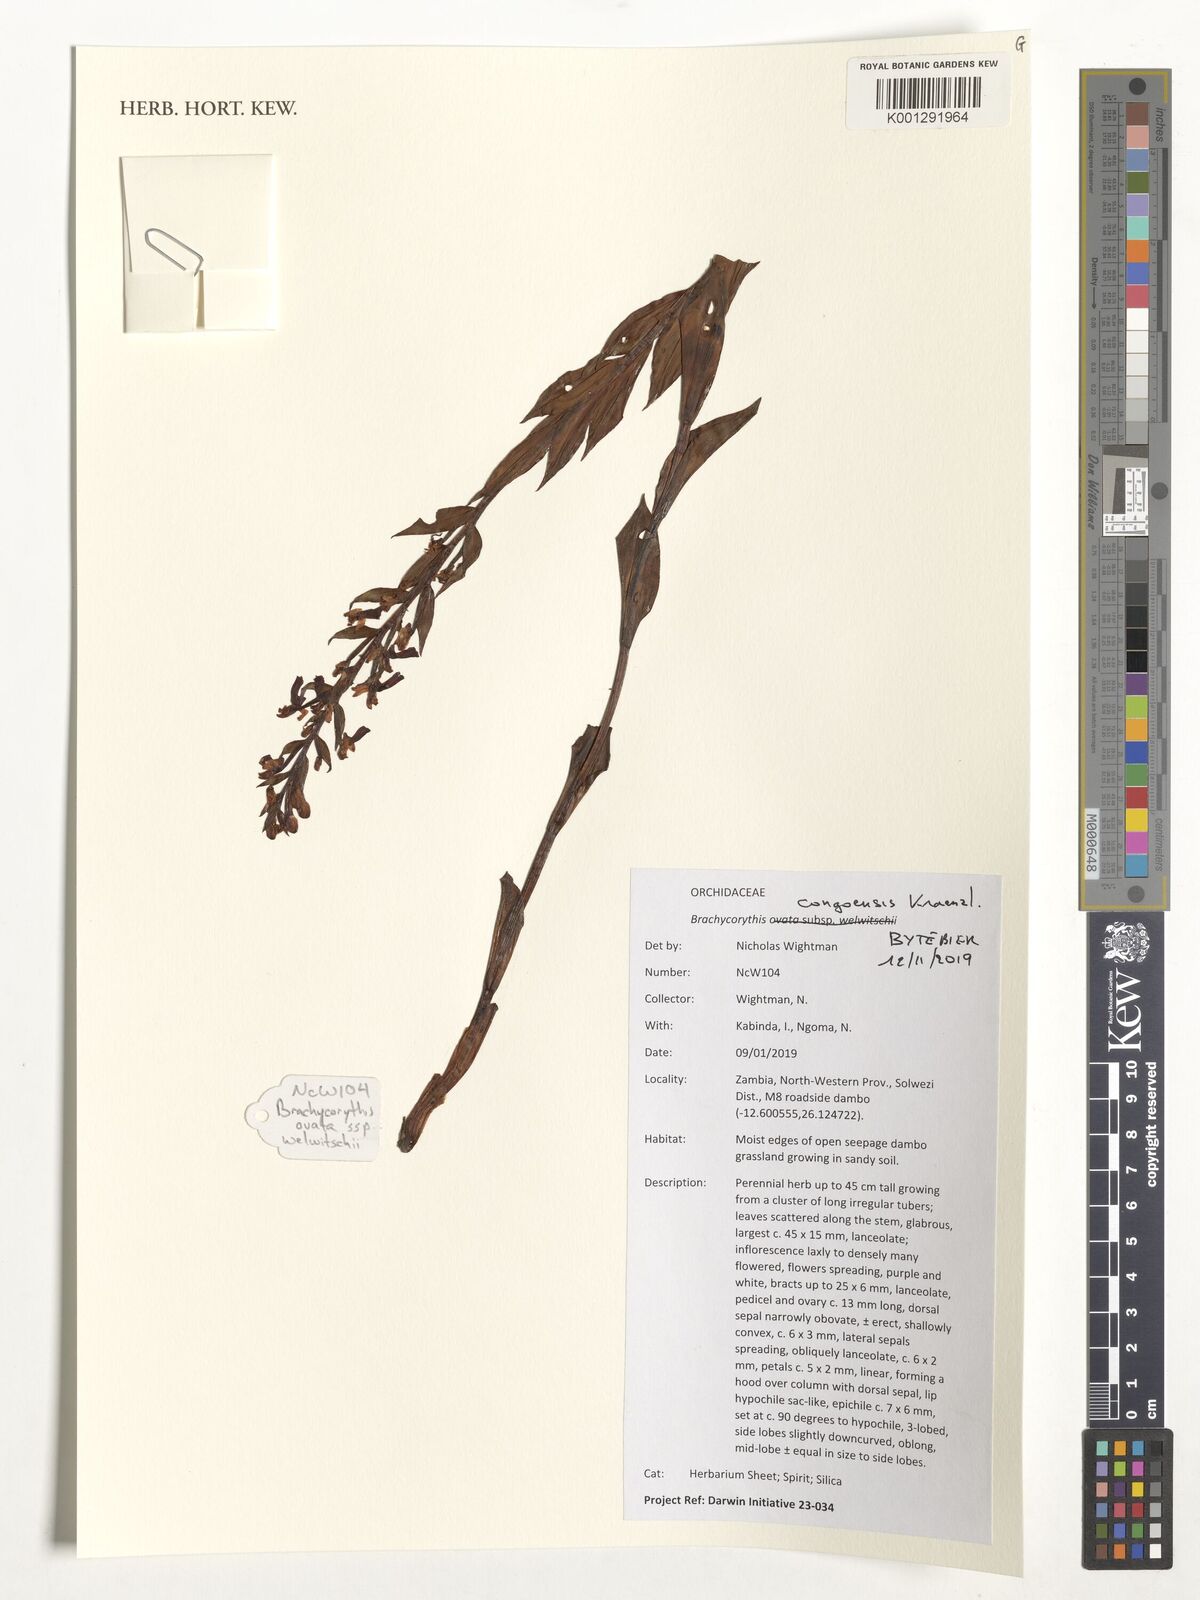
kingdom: Plantae
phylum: Tracheophyta
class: Liliopsida
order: Asparagales
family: Orchidaceae
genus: Brachycorythis
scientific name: Brachycorythis congoensis
